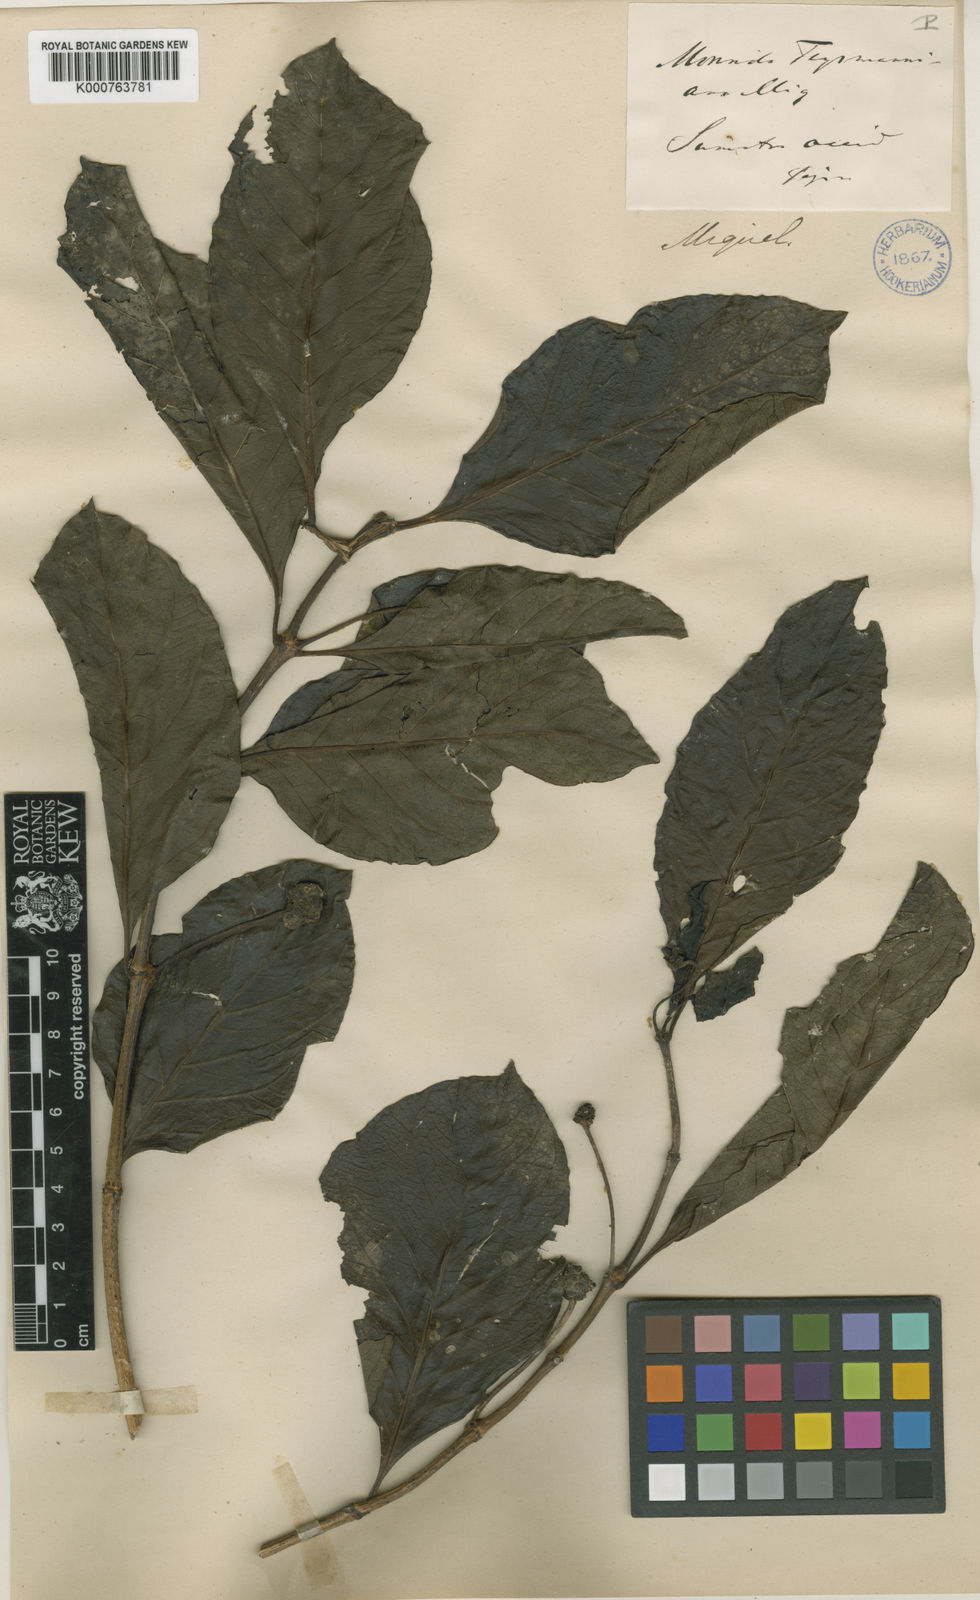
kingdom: Plantae
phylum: Tracheophyta
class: Magnoliopsida
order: Gentianales
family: Rubiaceae
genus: Morinda
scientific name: Morinda citrifolia
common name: Indian-mulberry
